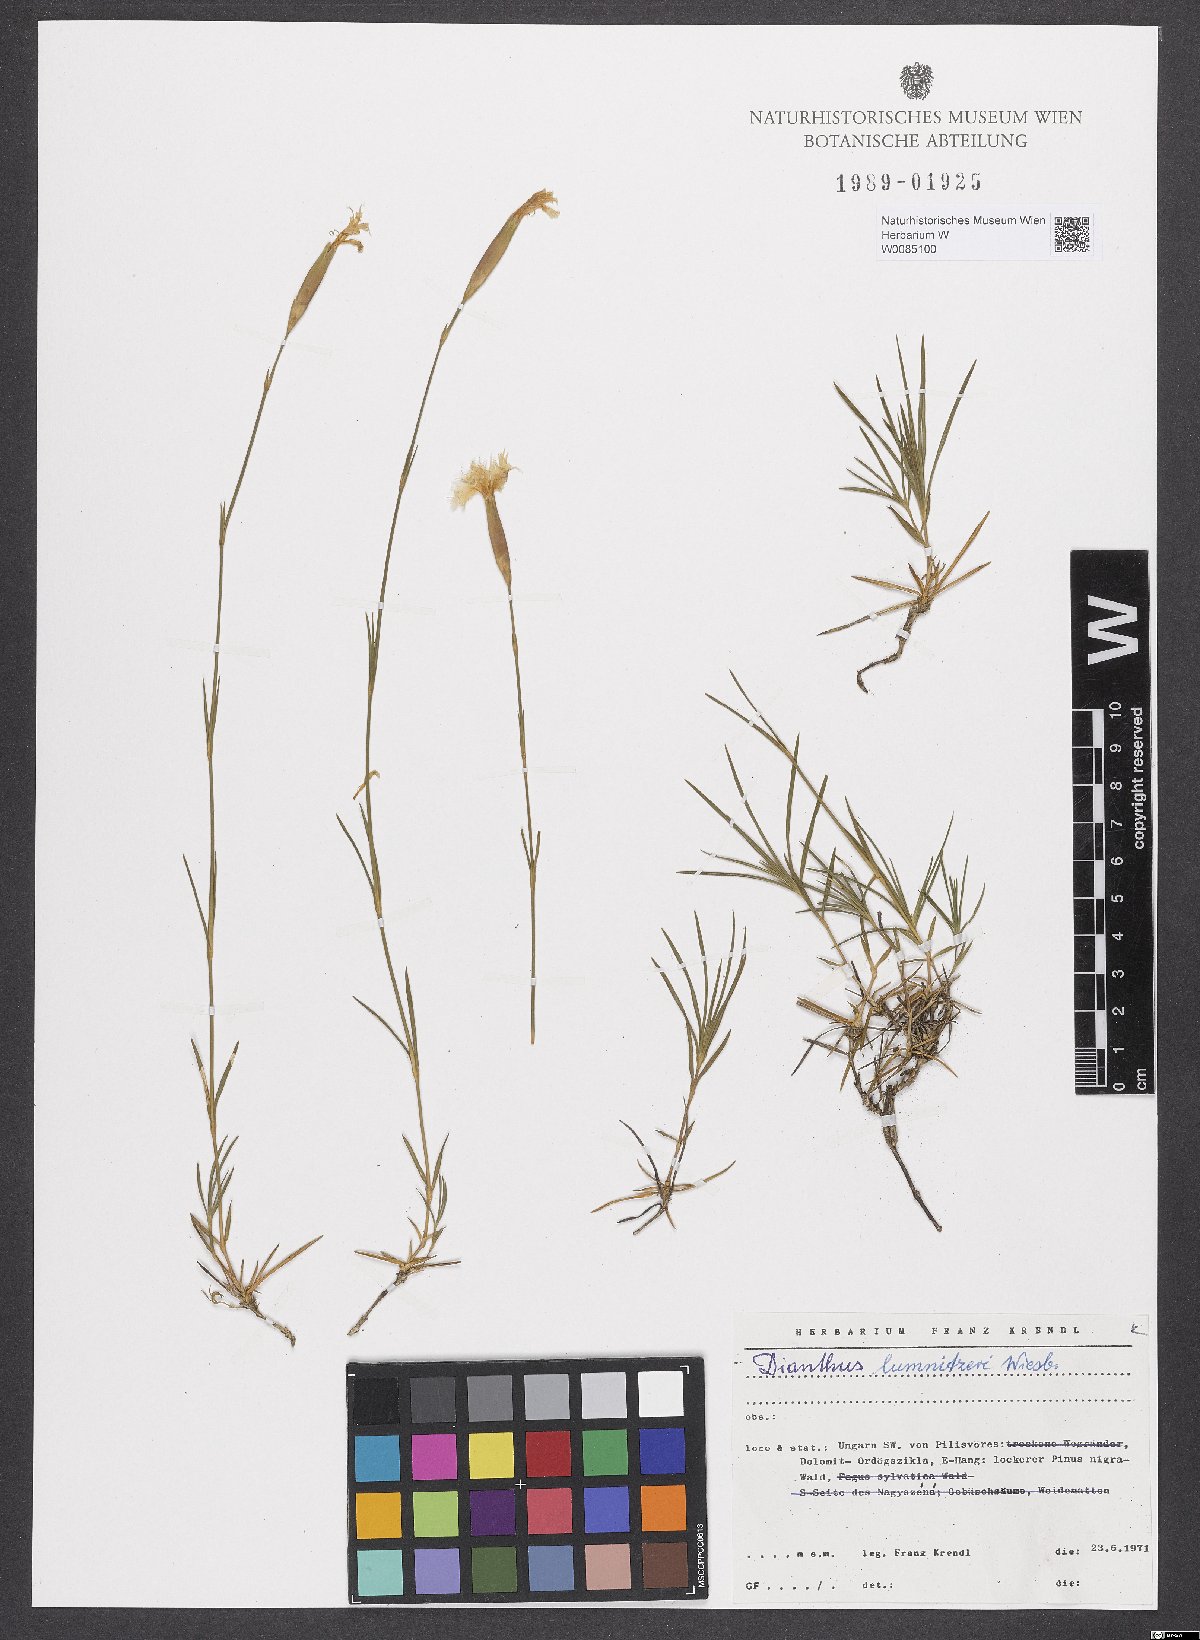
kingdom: Plantae
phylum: Tracheophyta
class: Magnoliopsida
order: Caryophyllales
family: Caryophyllaceae
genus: Dianthus
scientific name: Dianthus praecox
